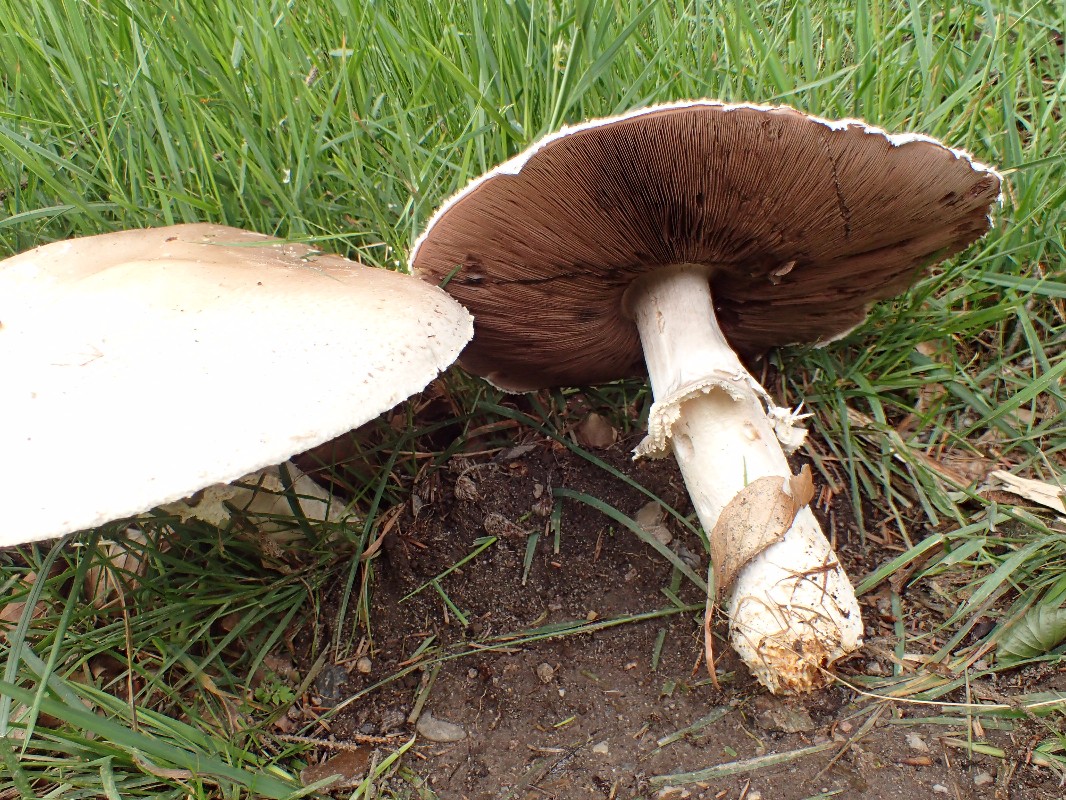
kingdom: Fungi
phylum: Basidiomycota
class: Agaricomycetes
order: Agaricales
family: Agaricaceae
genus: Agaricus
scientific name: Agaricus crocodilinus
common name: landsby-champignon
